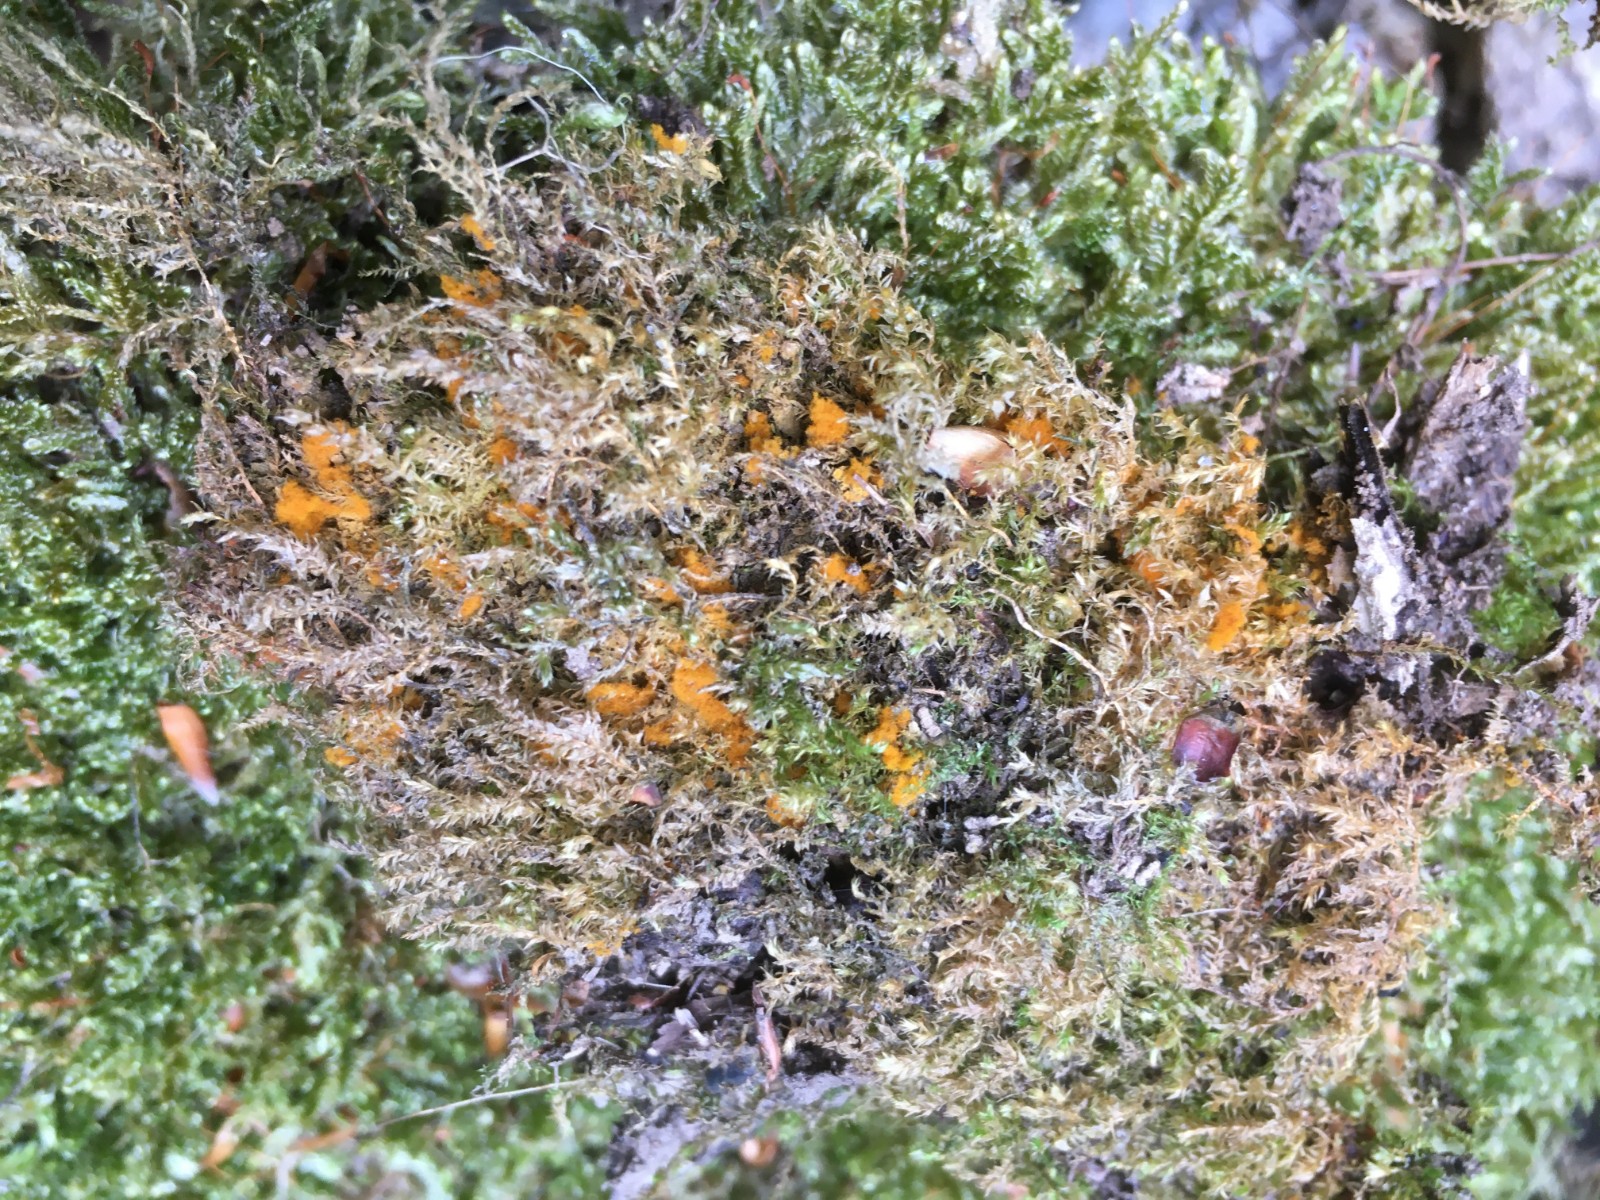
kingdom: Protozoa
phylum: Mycetozoa
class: Myxomycetes
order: Trichiales
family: Trichiaceae
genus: Trichia
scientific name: Trichia scabra
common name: tæppe-hårbold
